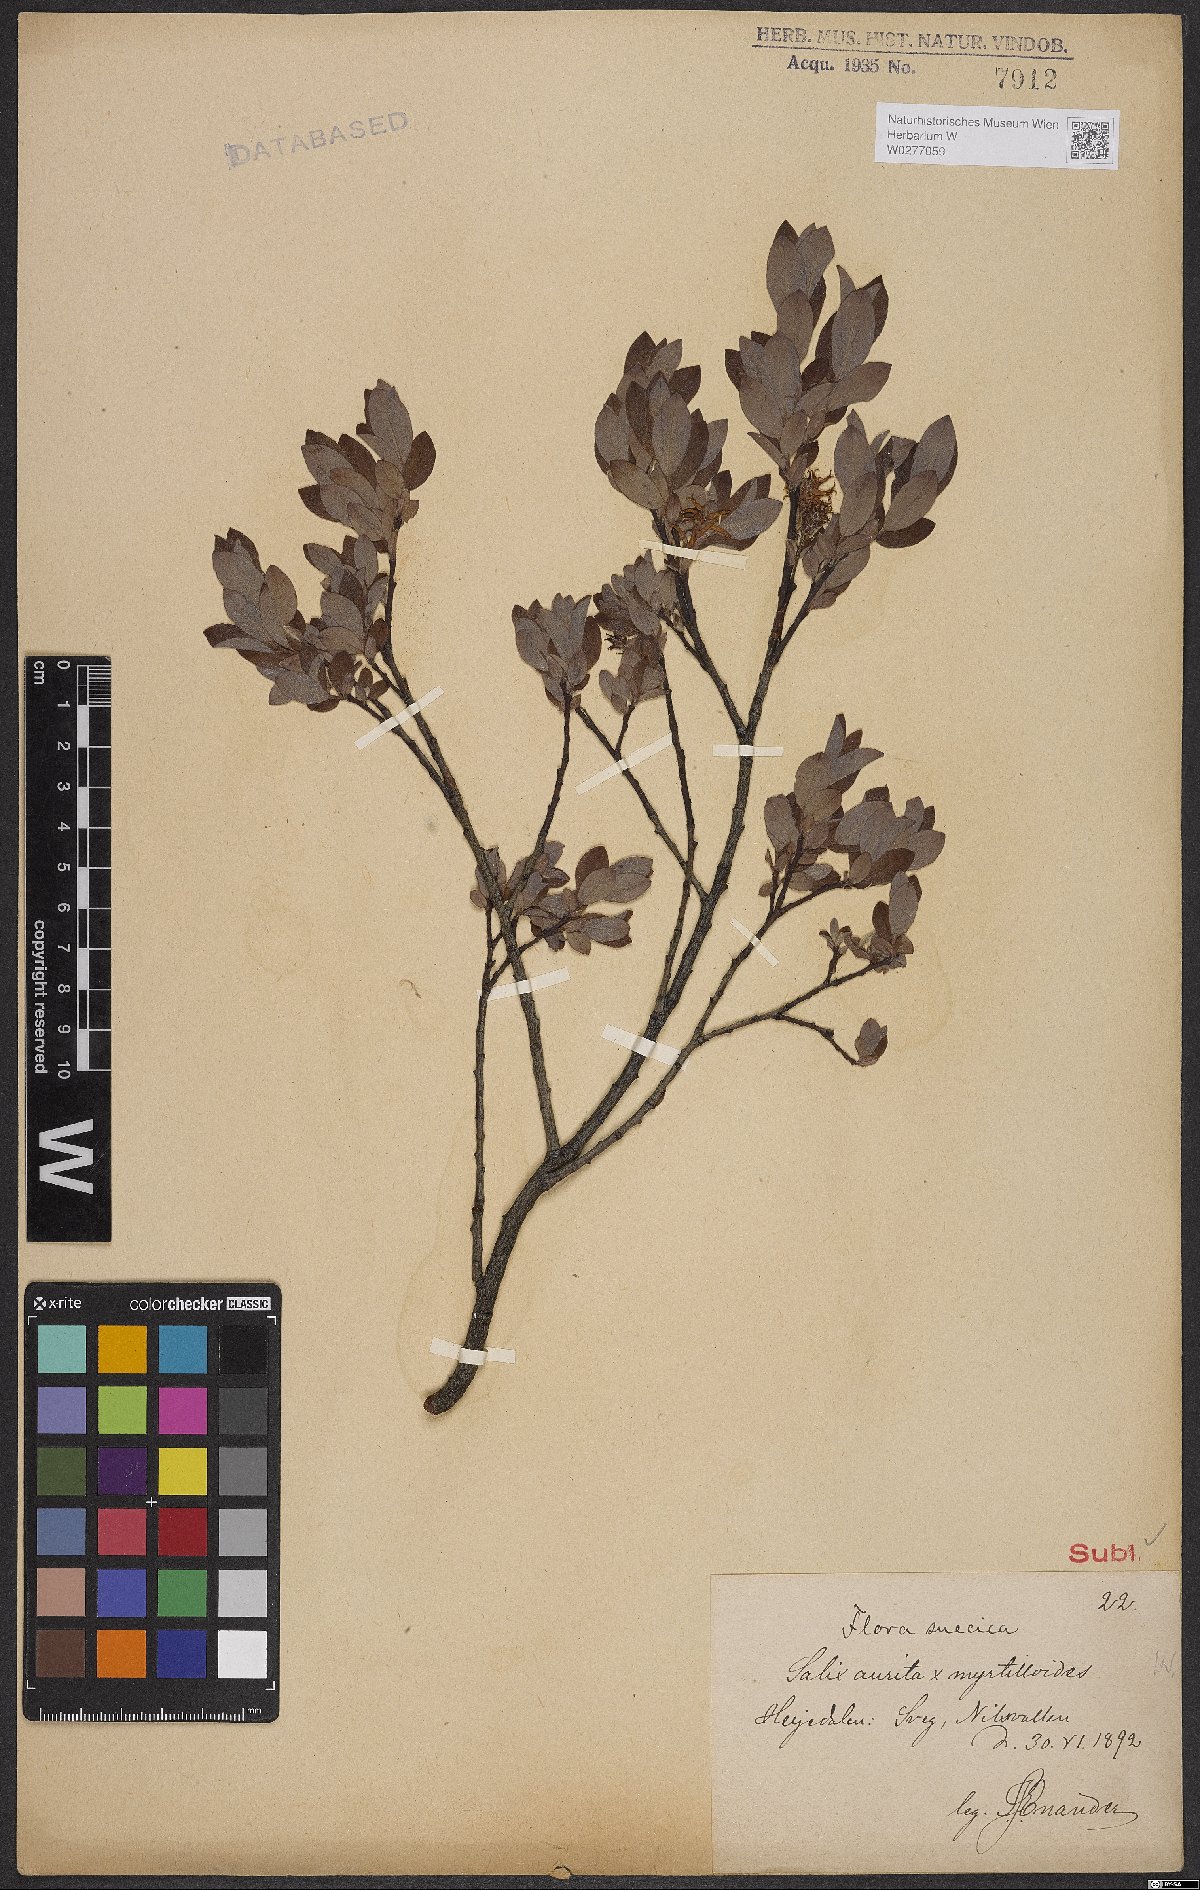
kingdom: Plantae
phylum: Tracheophyta
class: Magnoliopsida
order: Malpighiales
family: Salicaceae
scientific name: Salicaceae
